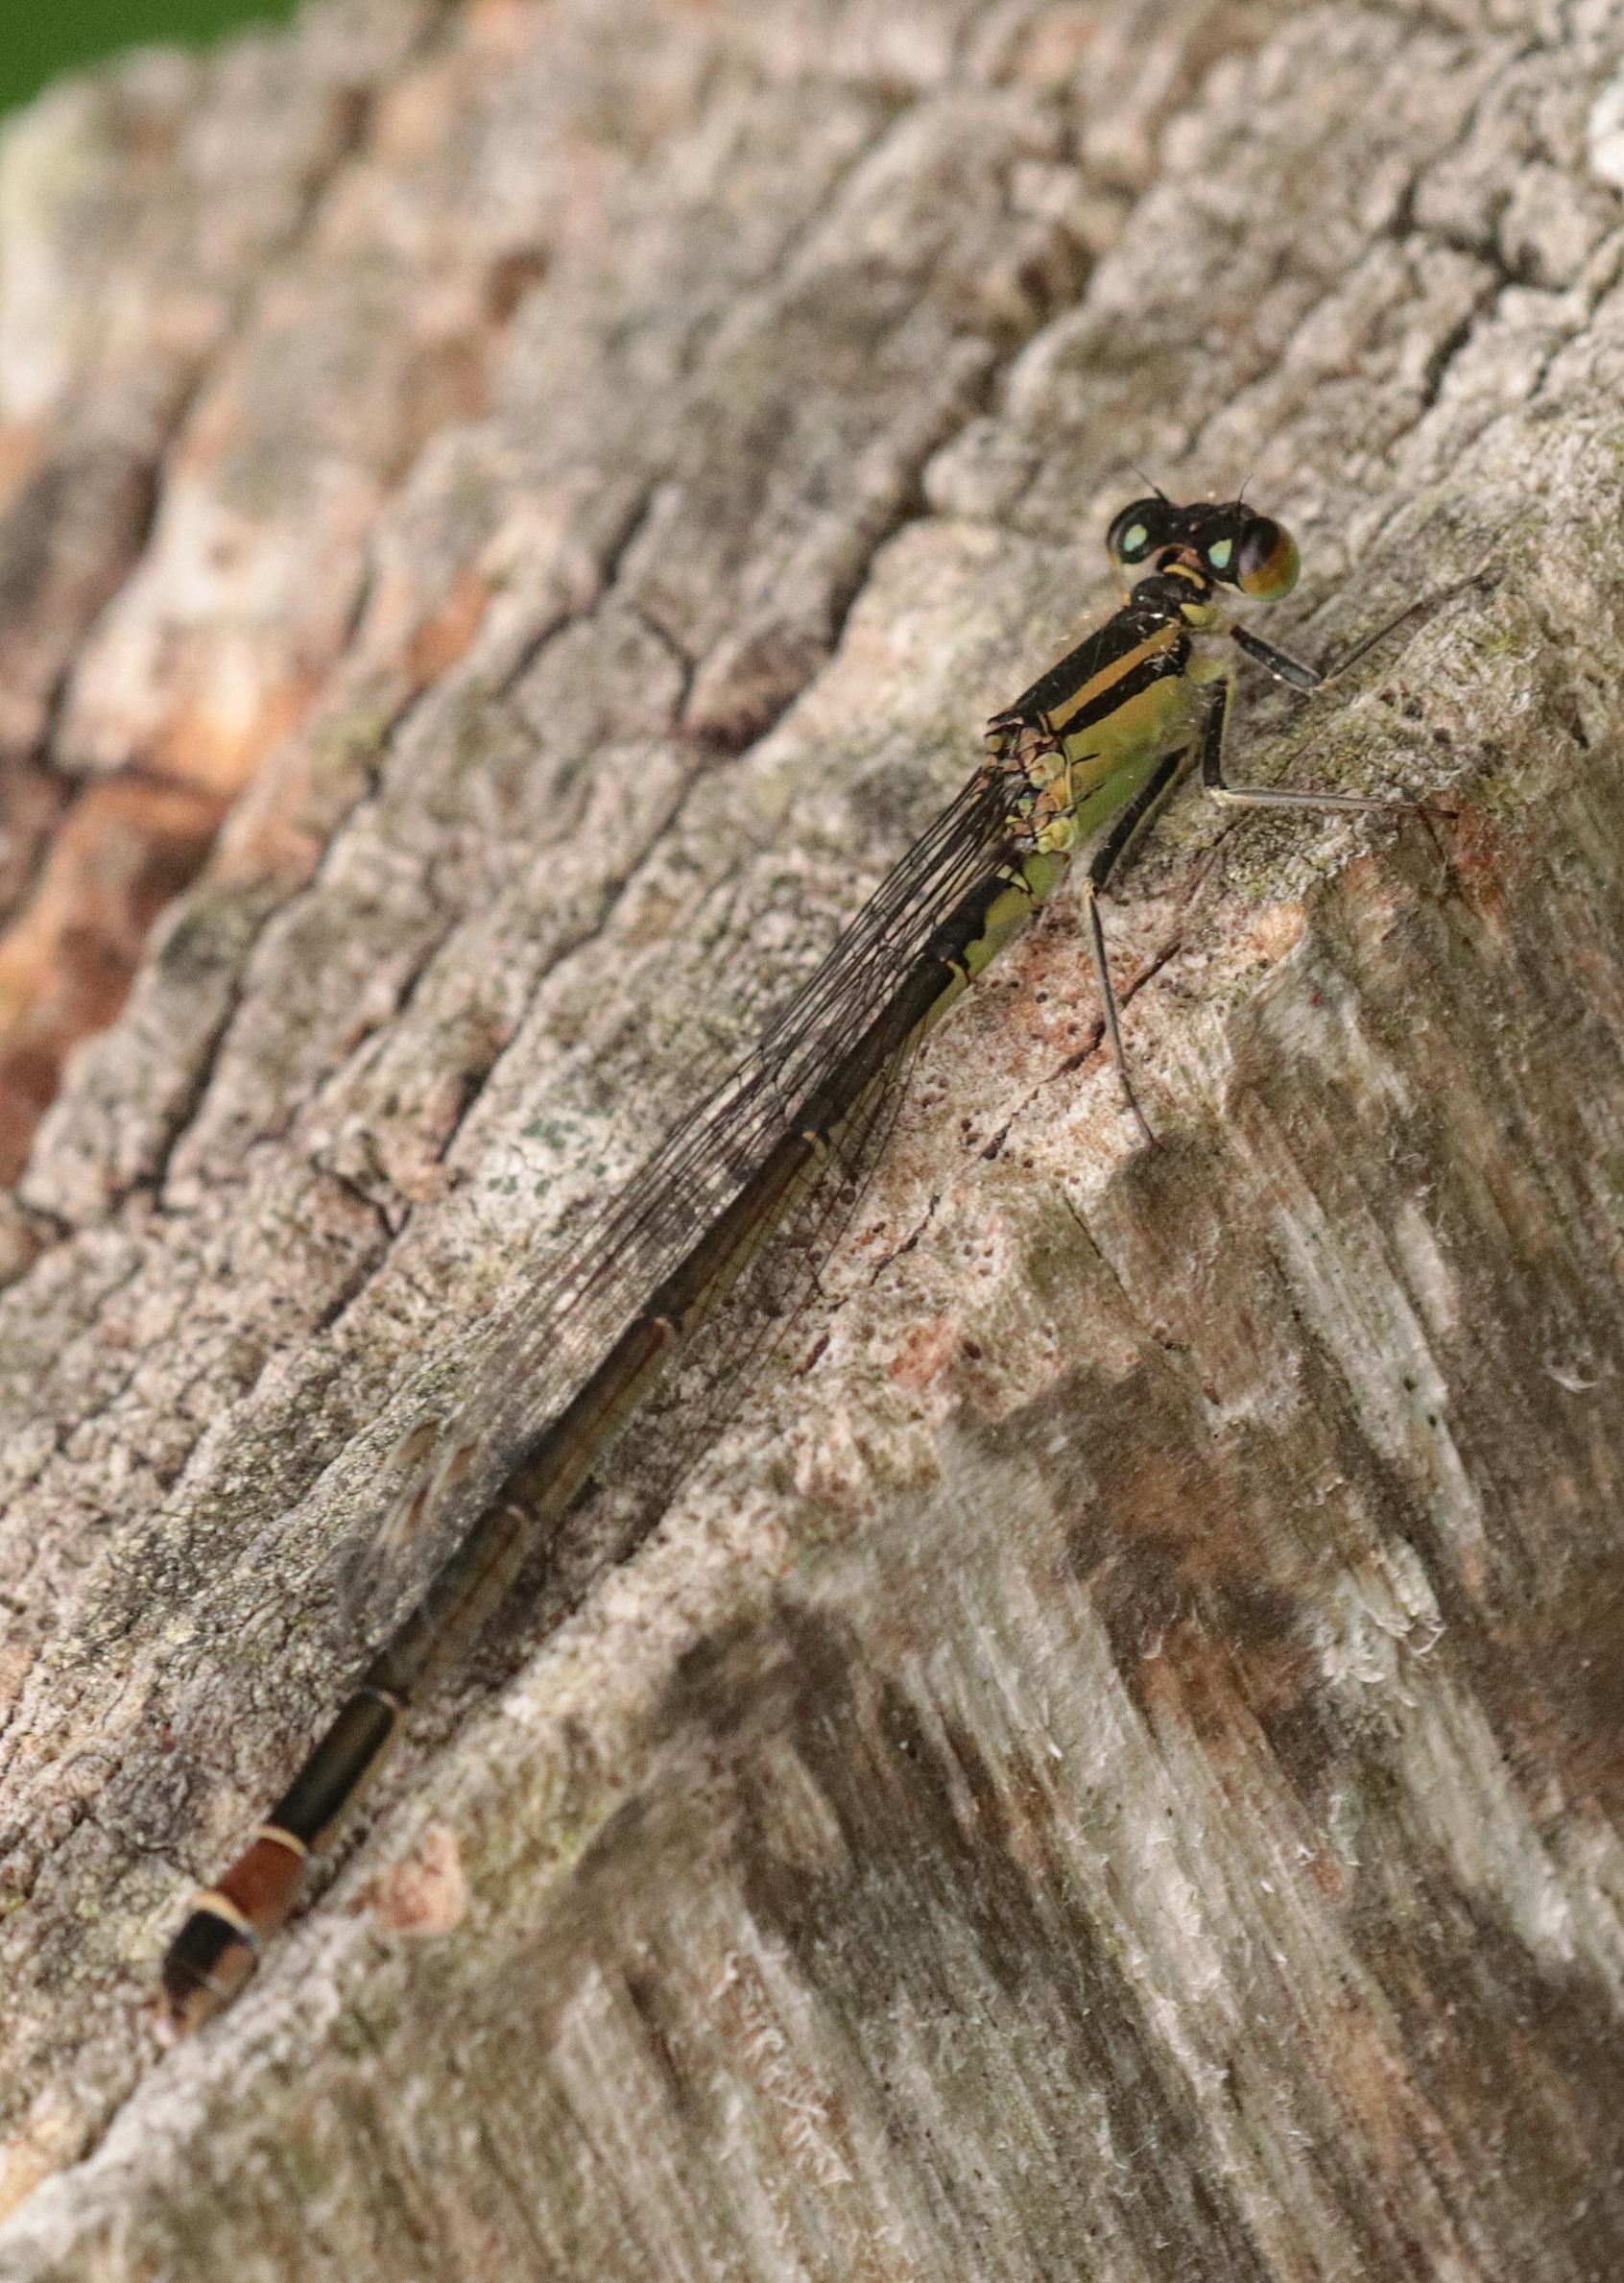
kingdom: Animalia
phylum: Arthropoda
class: Insecta
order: Odonata
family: Coenagrionidae
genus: Ischnura
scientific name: Ischnura elegans
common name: Stor farvevandnymfe
